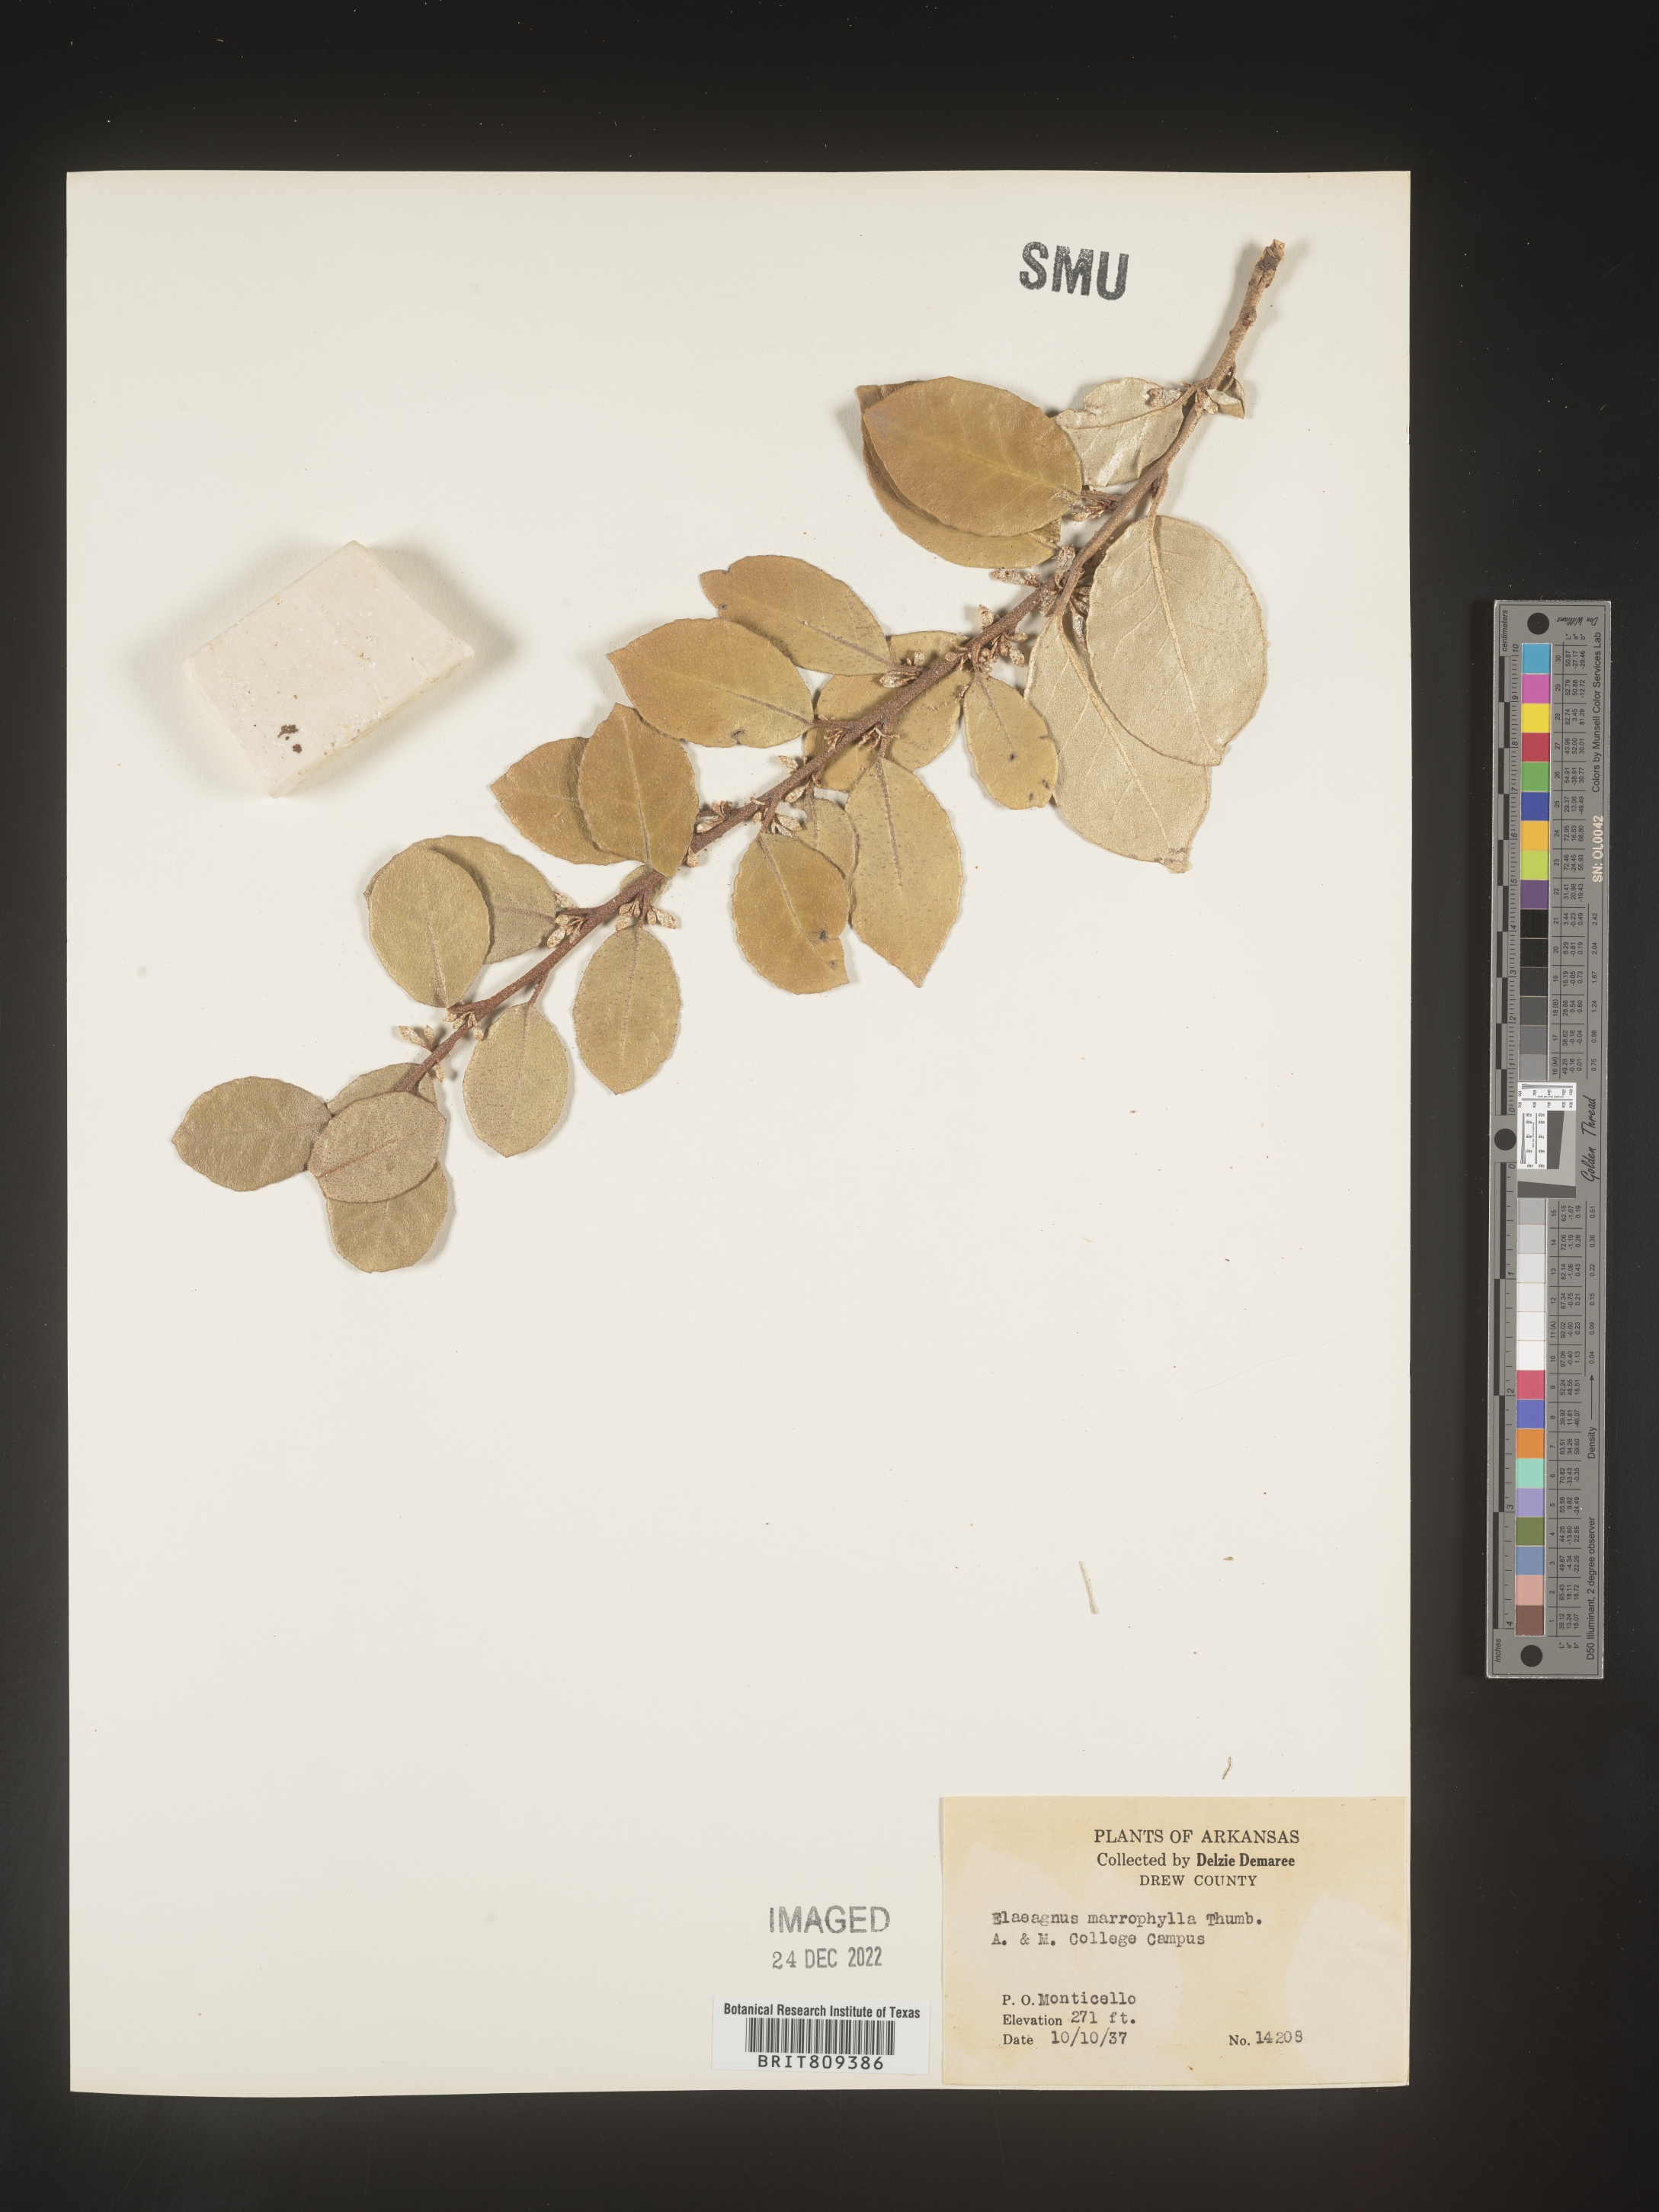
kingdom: Plantae
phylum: Tracheophyta
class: Magnoliopsida
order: Rosales
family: Elaeagnaceae
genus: Elaeagnus
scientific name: Elaeagnus
